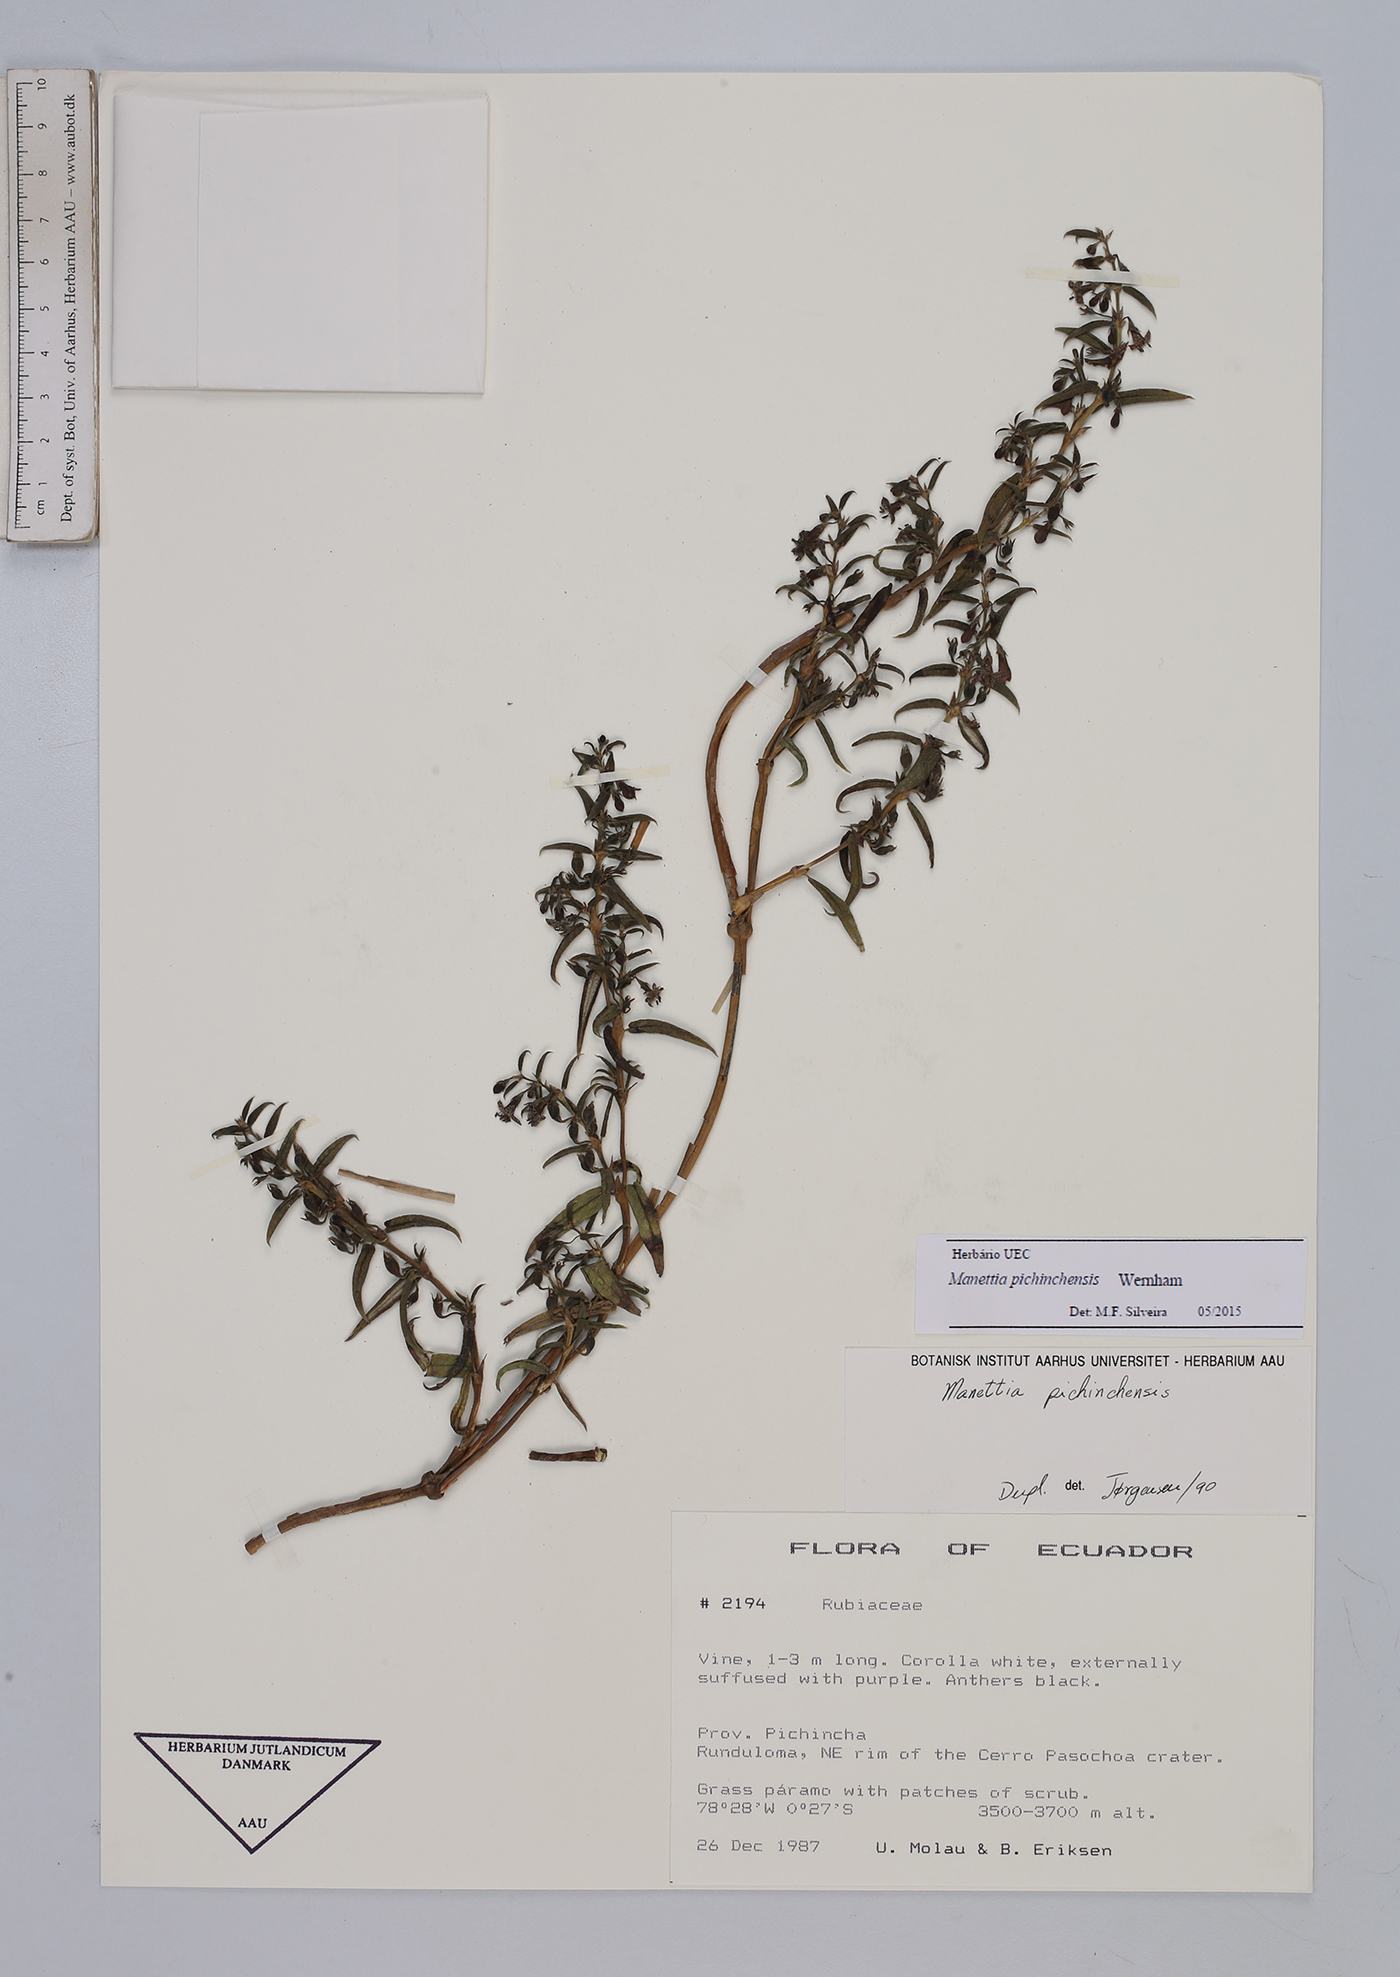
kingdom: Plantae
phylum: Tracheophyta
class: Magnoliopsida
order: Gentianales
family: Rubiaceae
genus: Manettia
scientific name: Manettia pichinchensis
